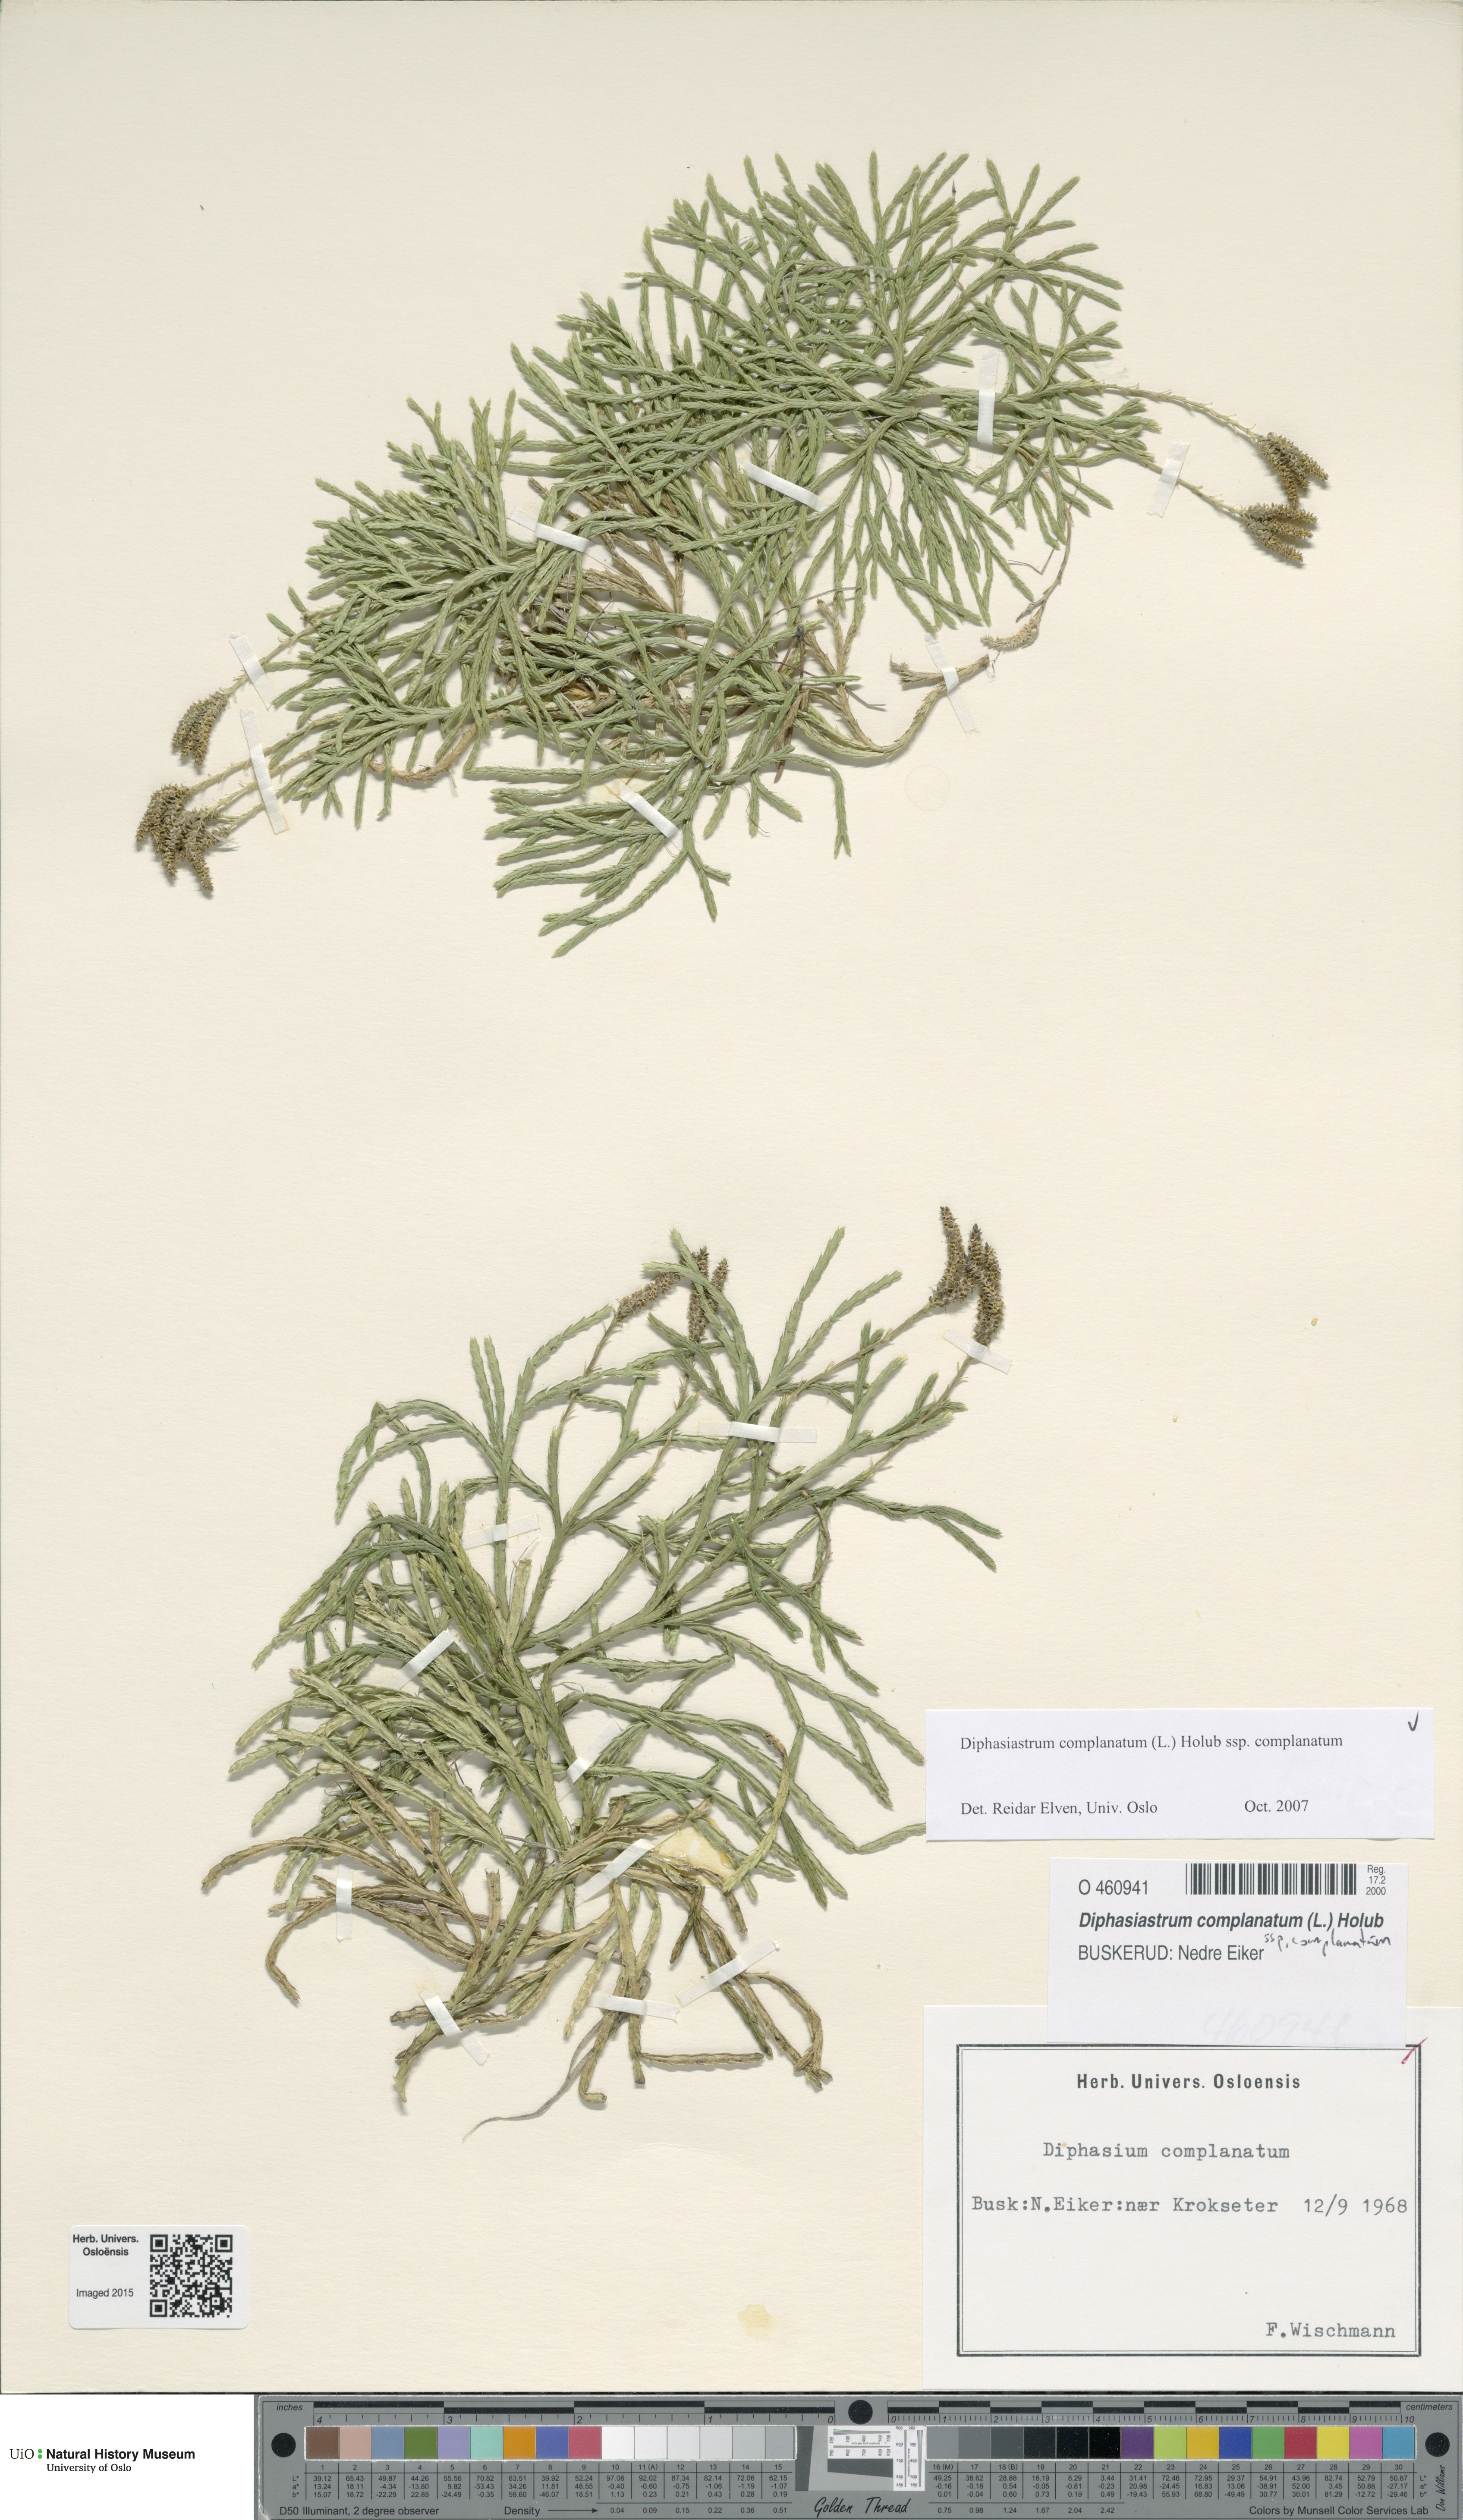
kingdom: Plantae
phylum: Tracheophyta
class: Lycopodiopsida
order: Lycopodiales
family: Lycopodiaceae
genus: Diphasiastrum
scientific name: Diphasiastrum complanatum
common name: Northern running-pine
